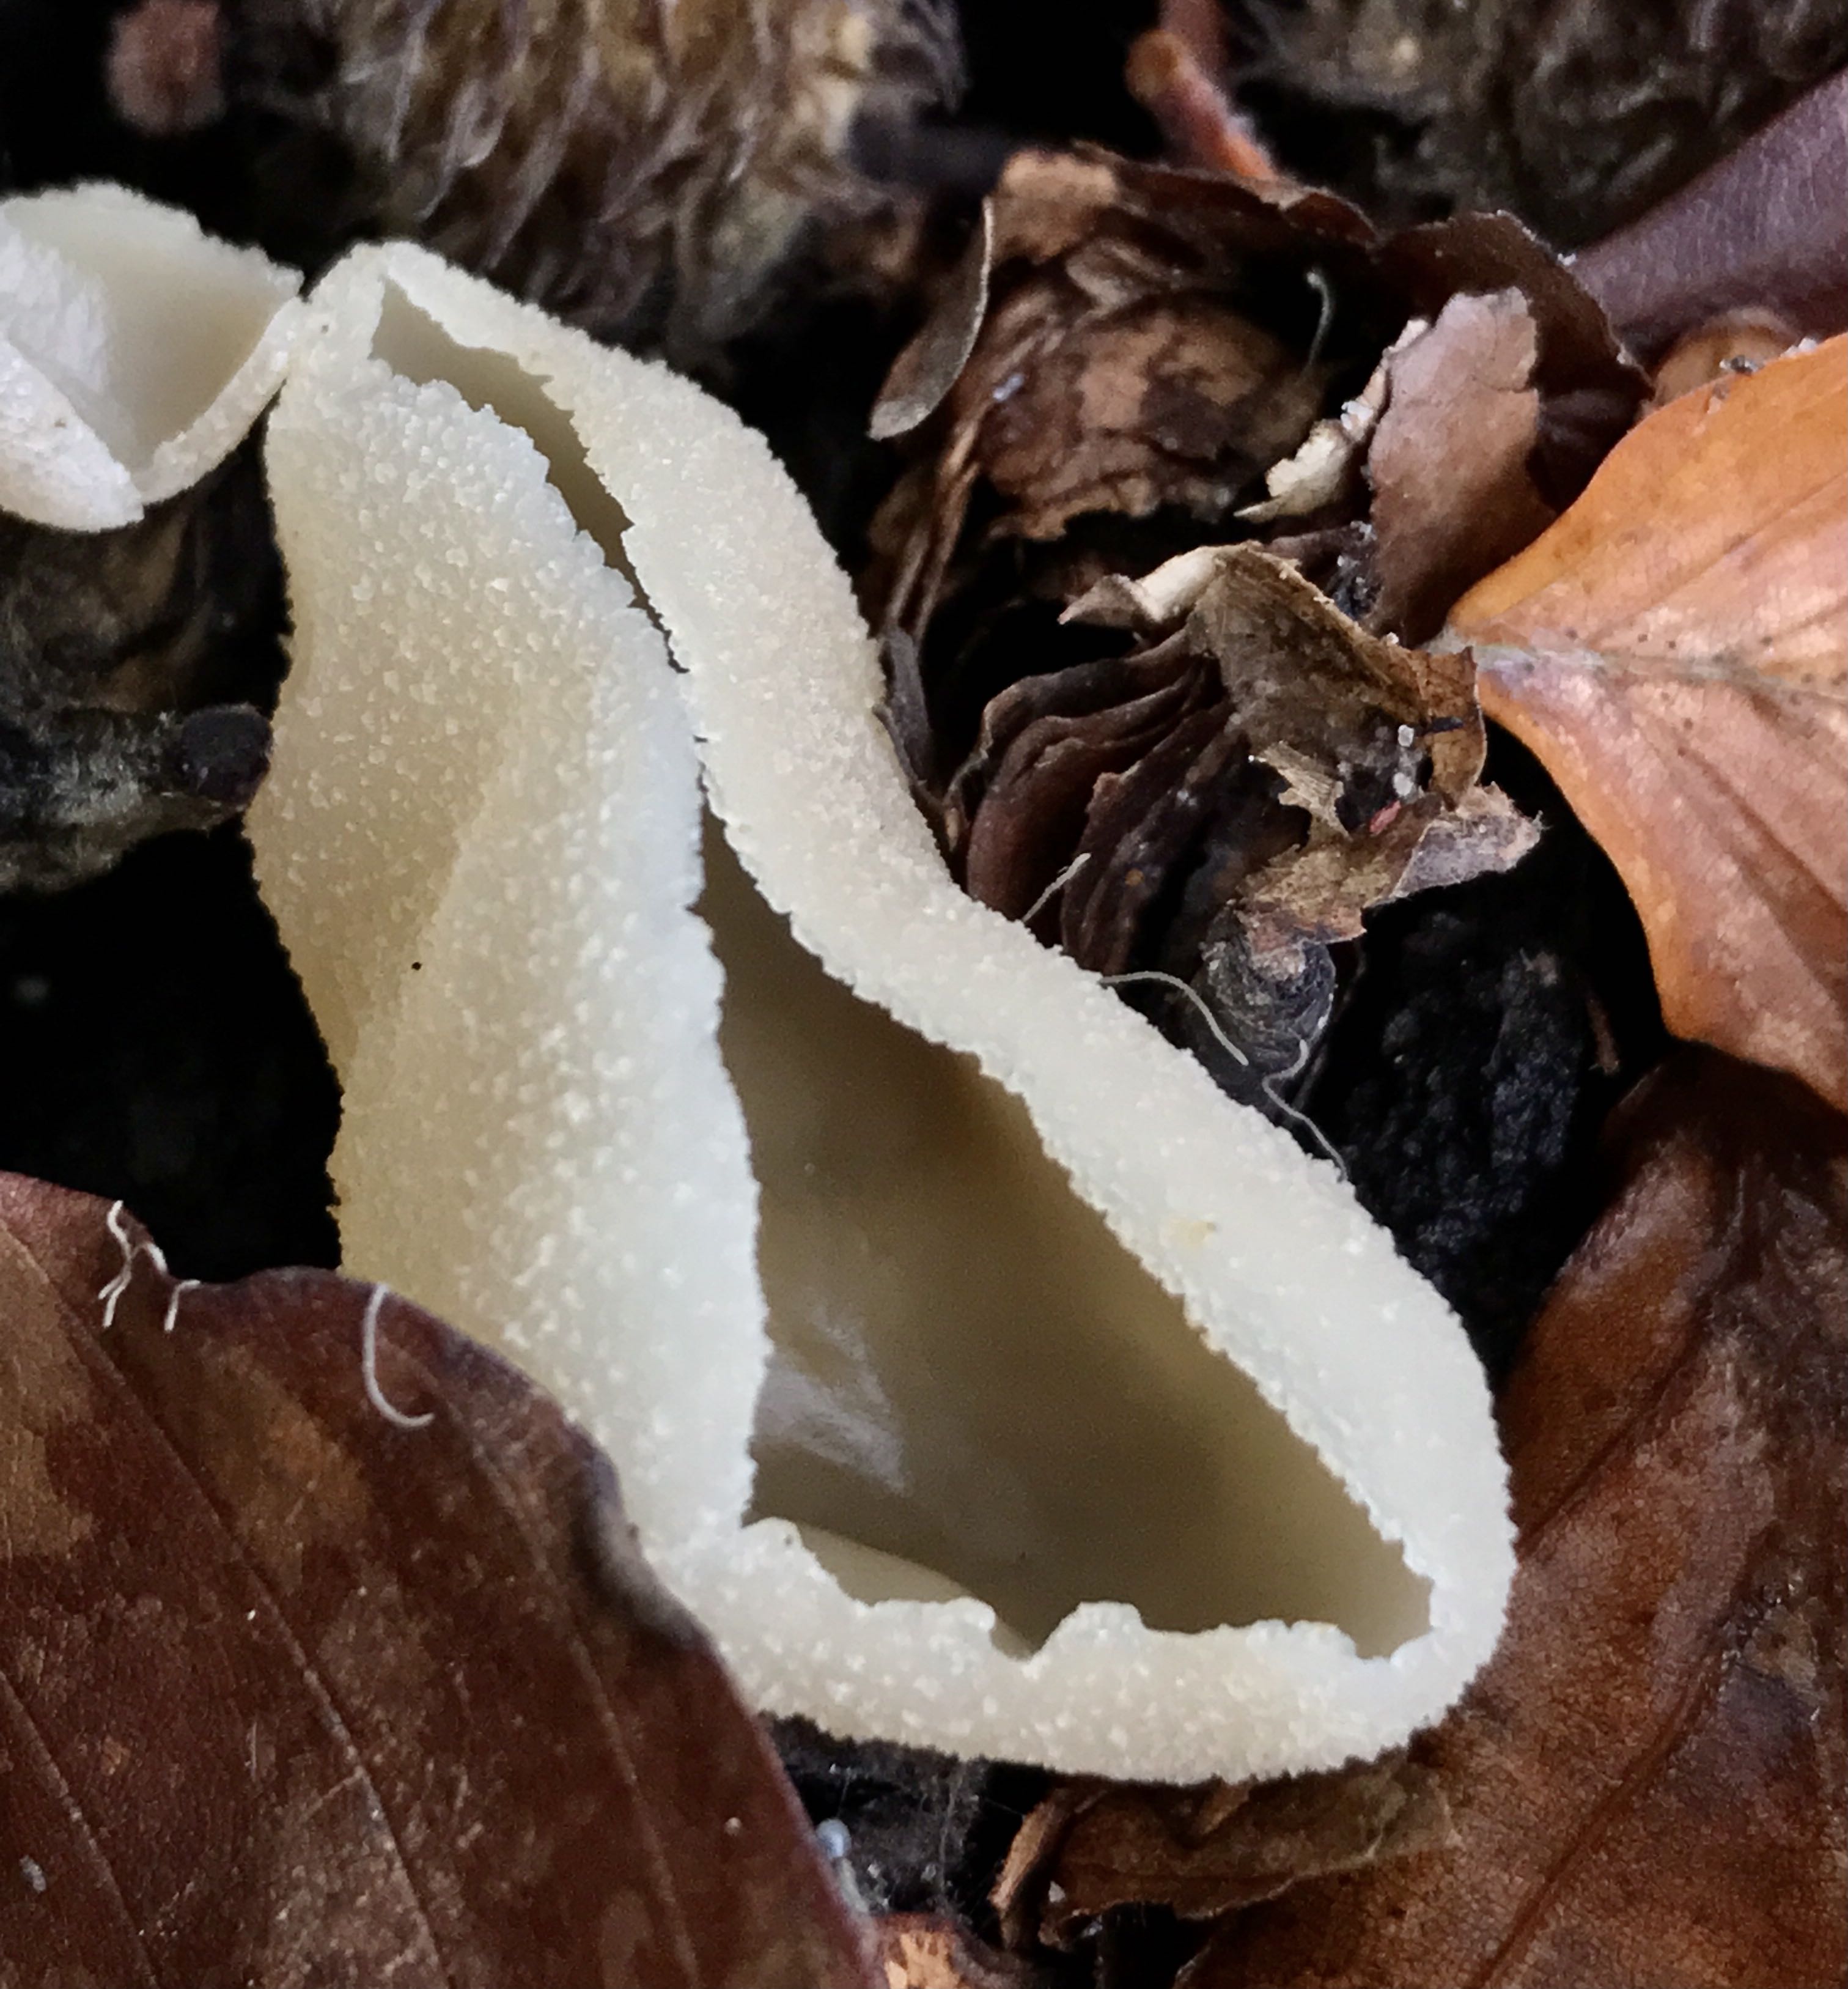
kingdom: Fungi
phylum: Ascomycota
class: Pezizomycetes
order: Pezizales
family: Pezizaceae
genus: Peziza
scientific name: Peziza
